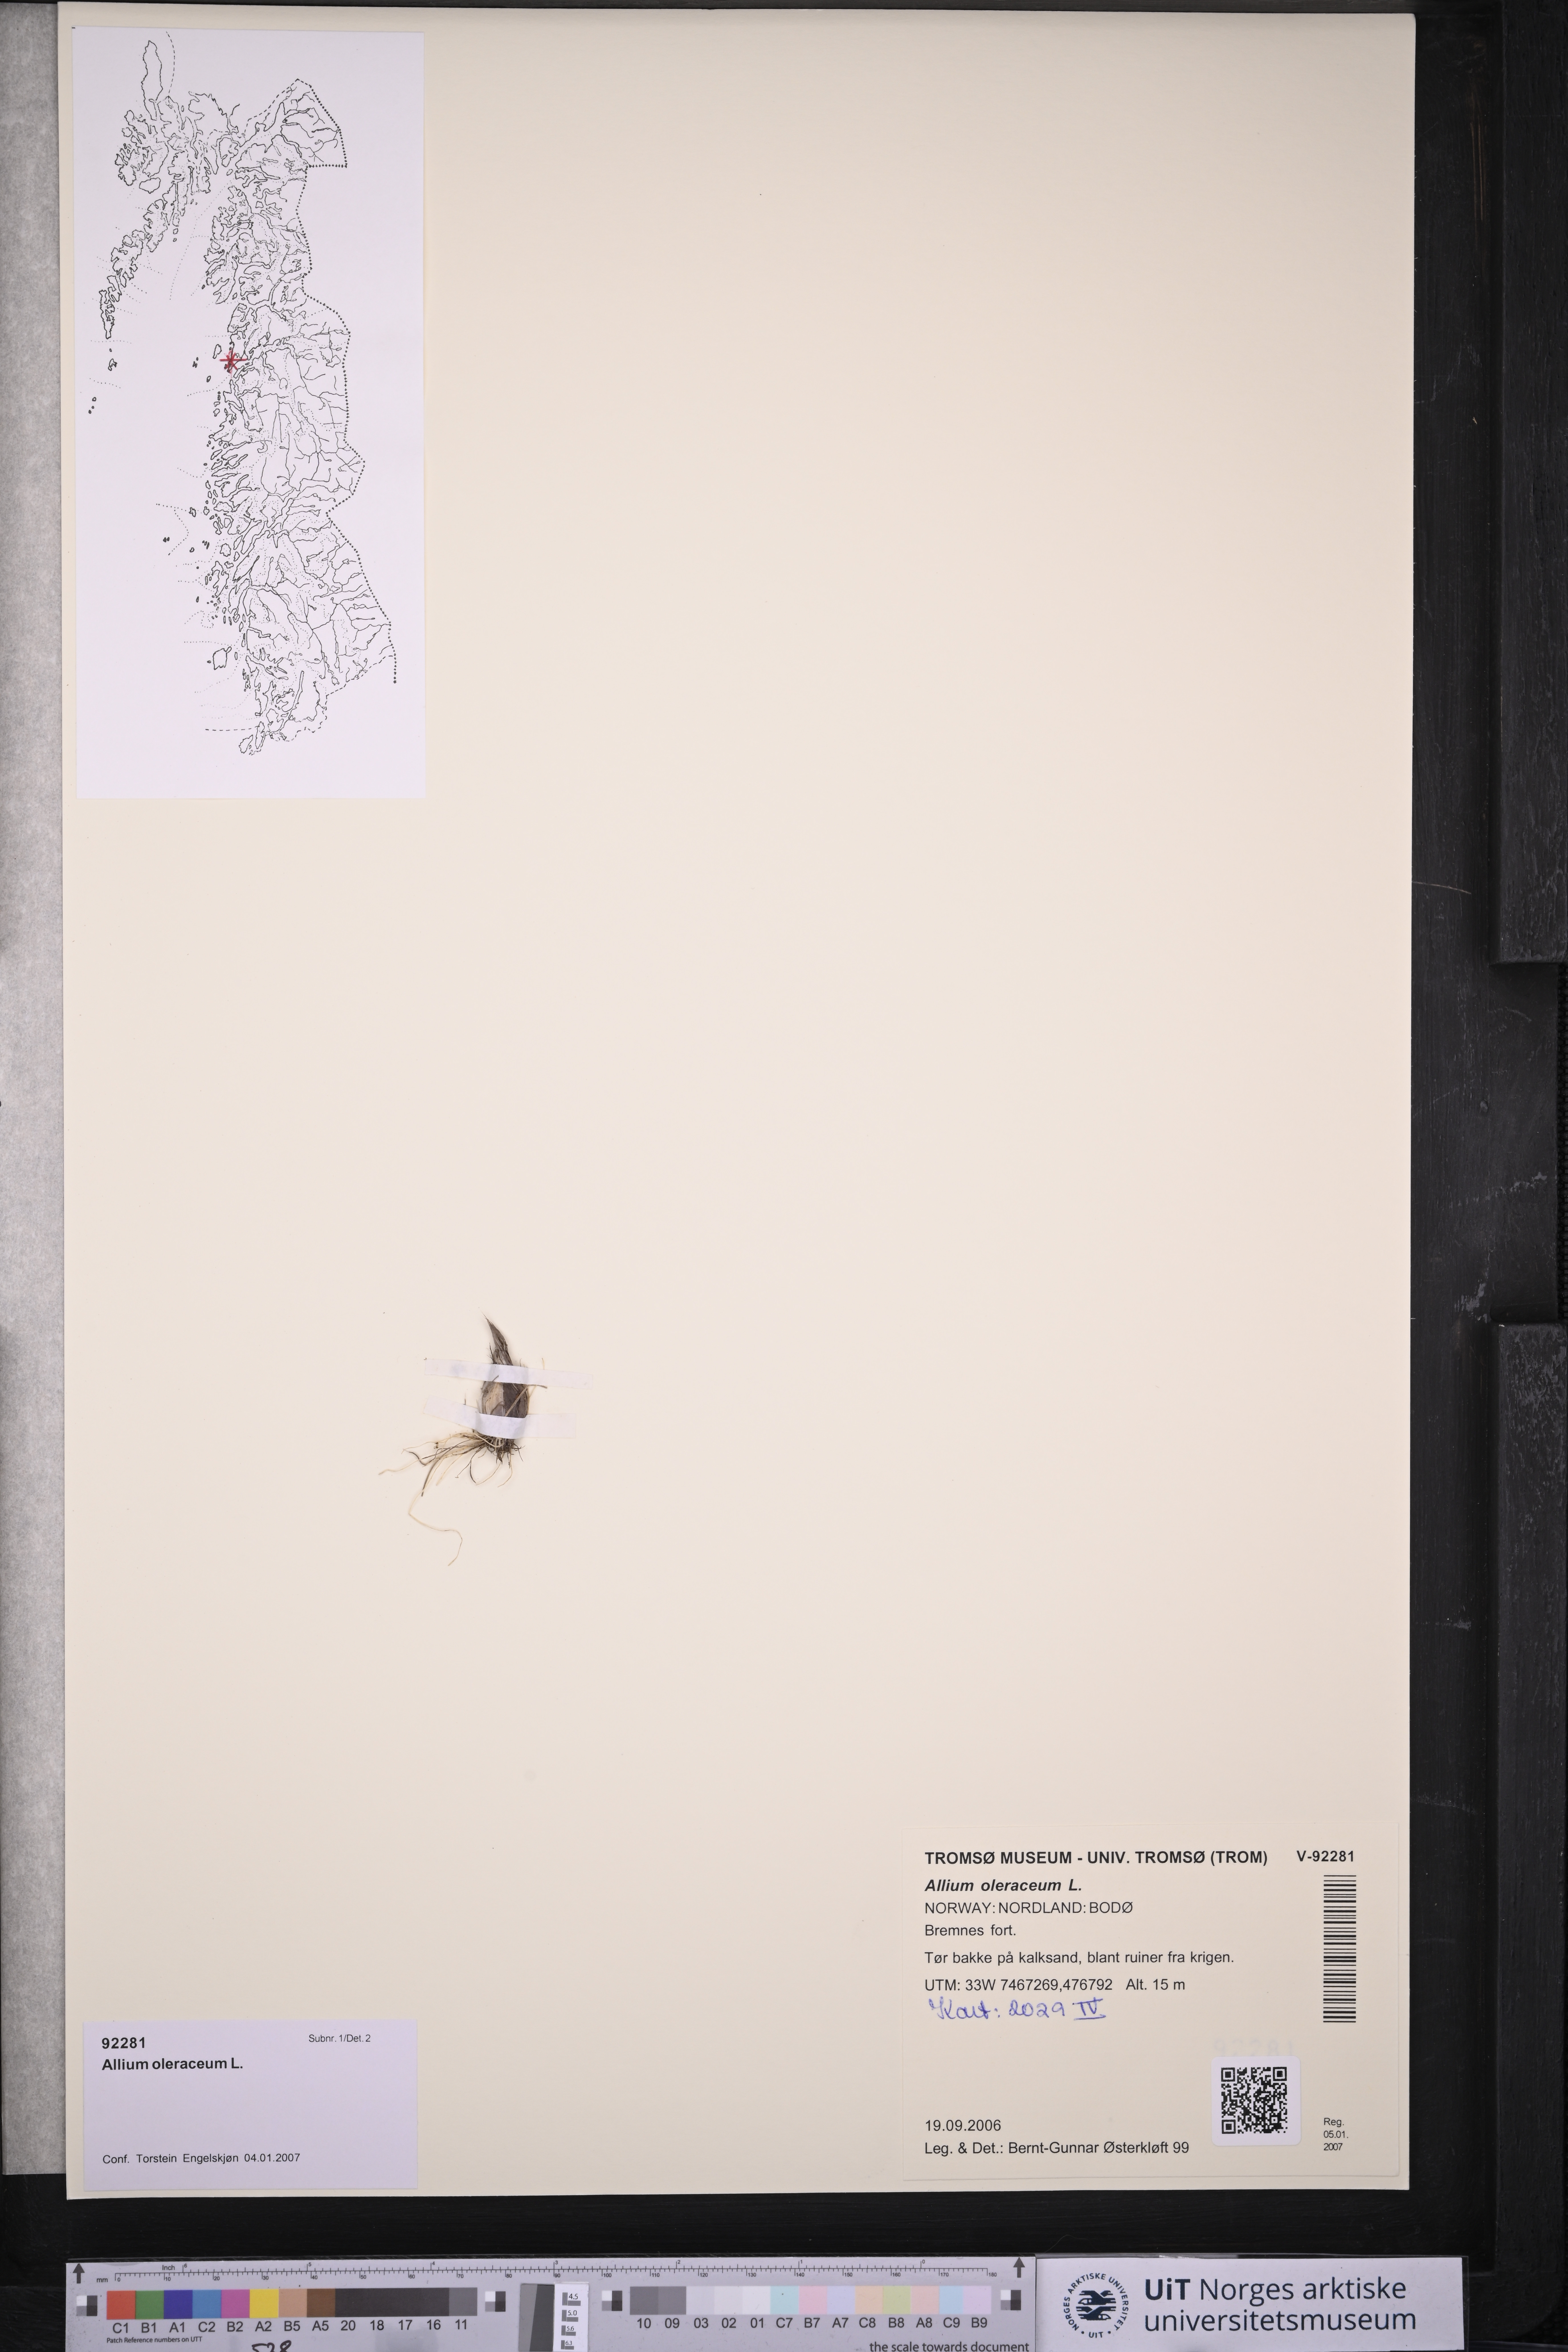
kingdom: Plantae
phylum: Tracheophyta
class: Liliopsida
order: Asparagales
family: Amaryllidaceae
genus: Allium
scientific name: Allium oleraceum
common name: Field garlic
